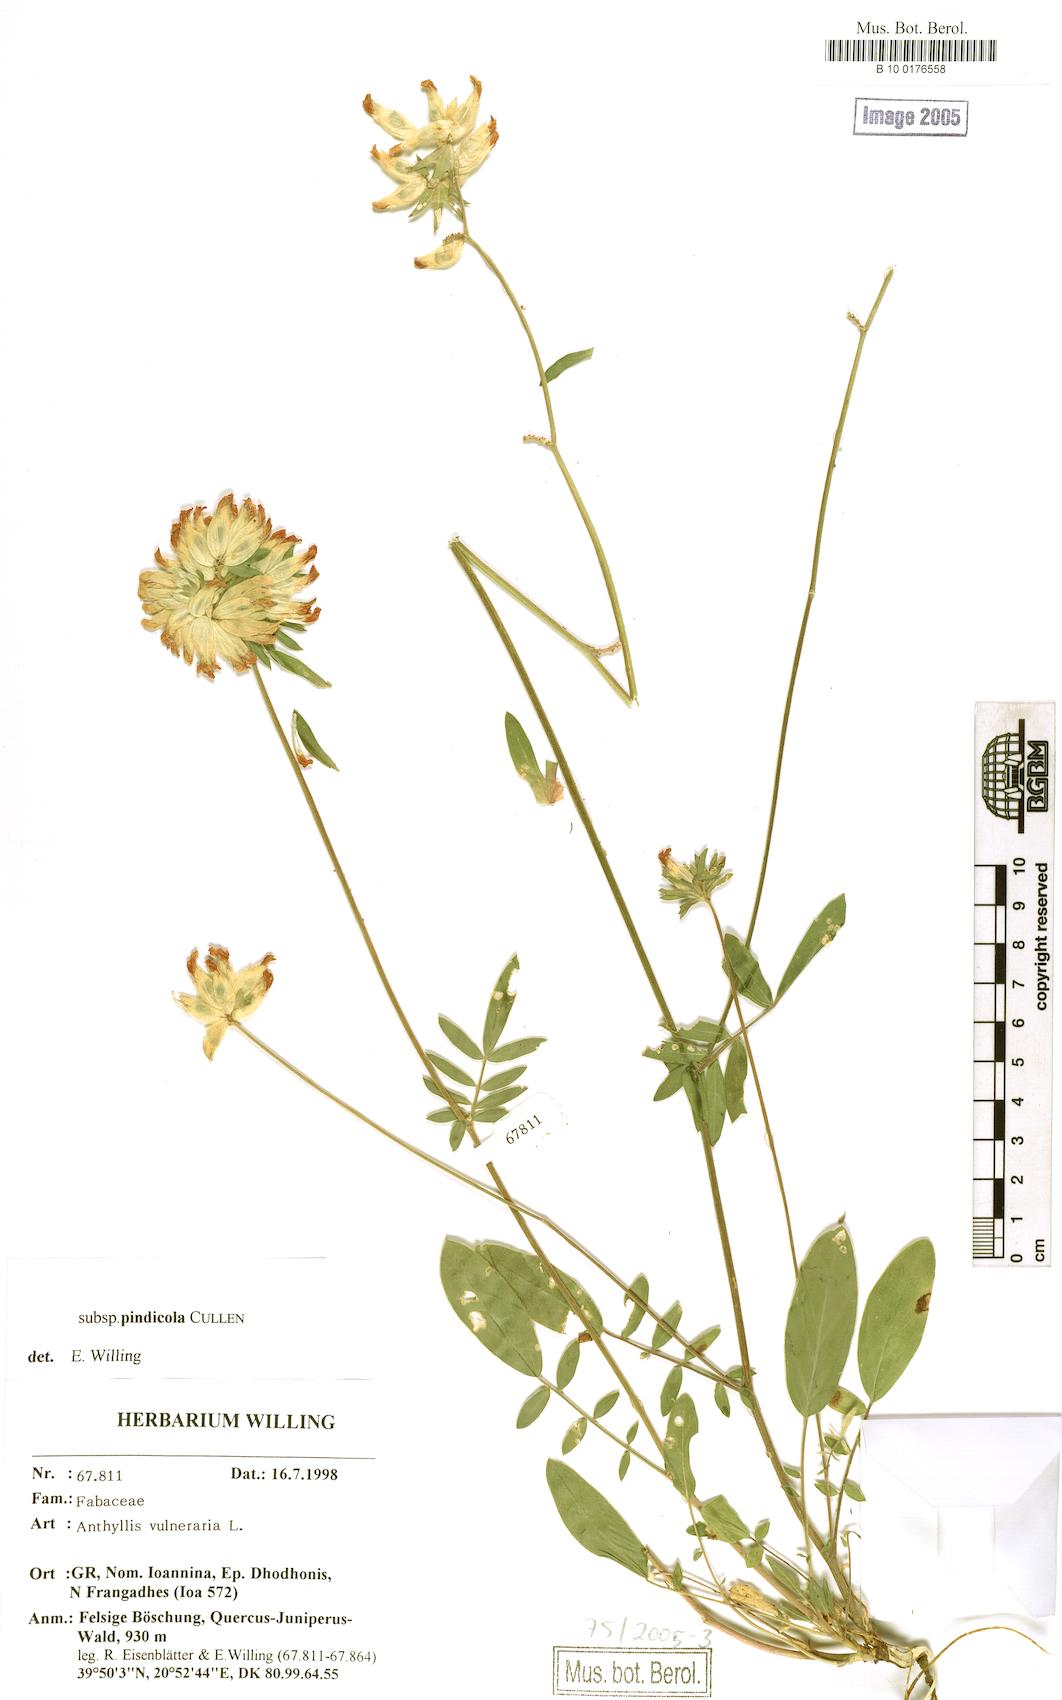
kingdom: Plantae
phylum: Tracheophyta
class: Magnoliopsida
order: Fabales
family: Fabaceae
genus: Anthyllis
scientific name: Anthyllis vulneraria
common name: Kidney vetch
